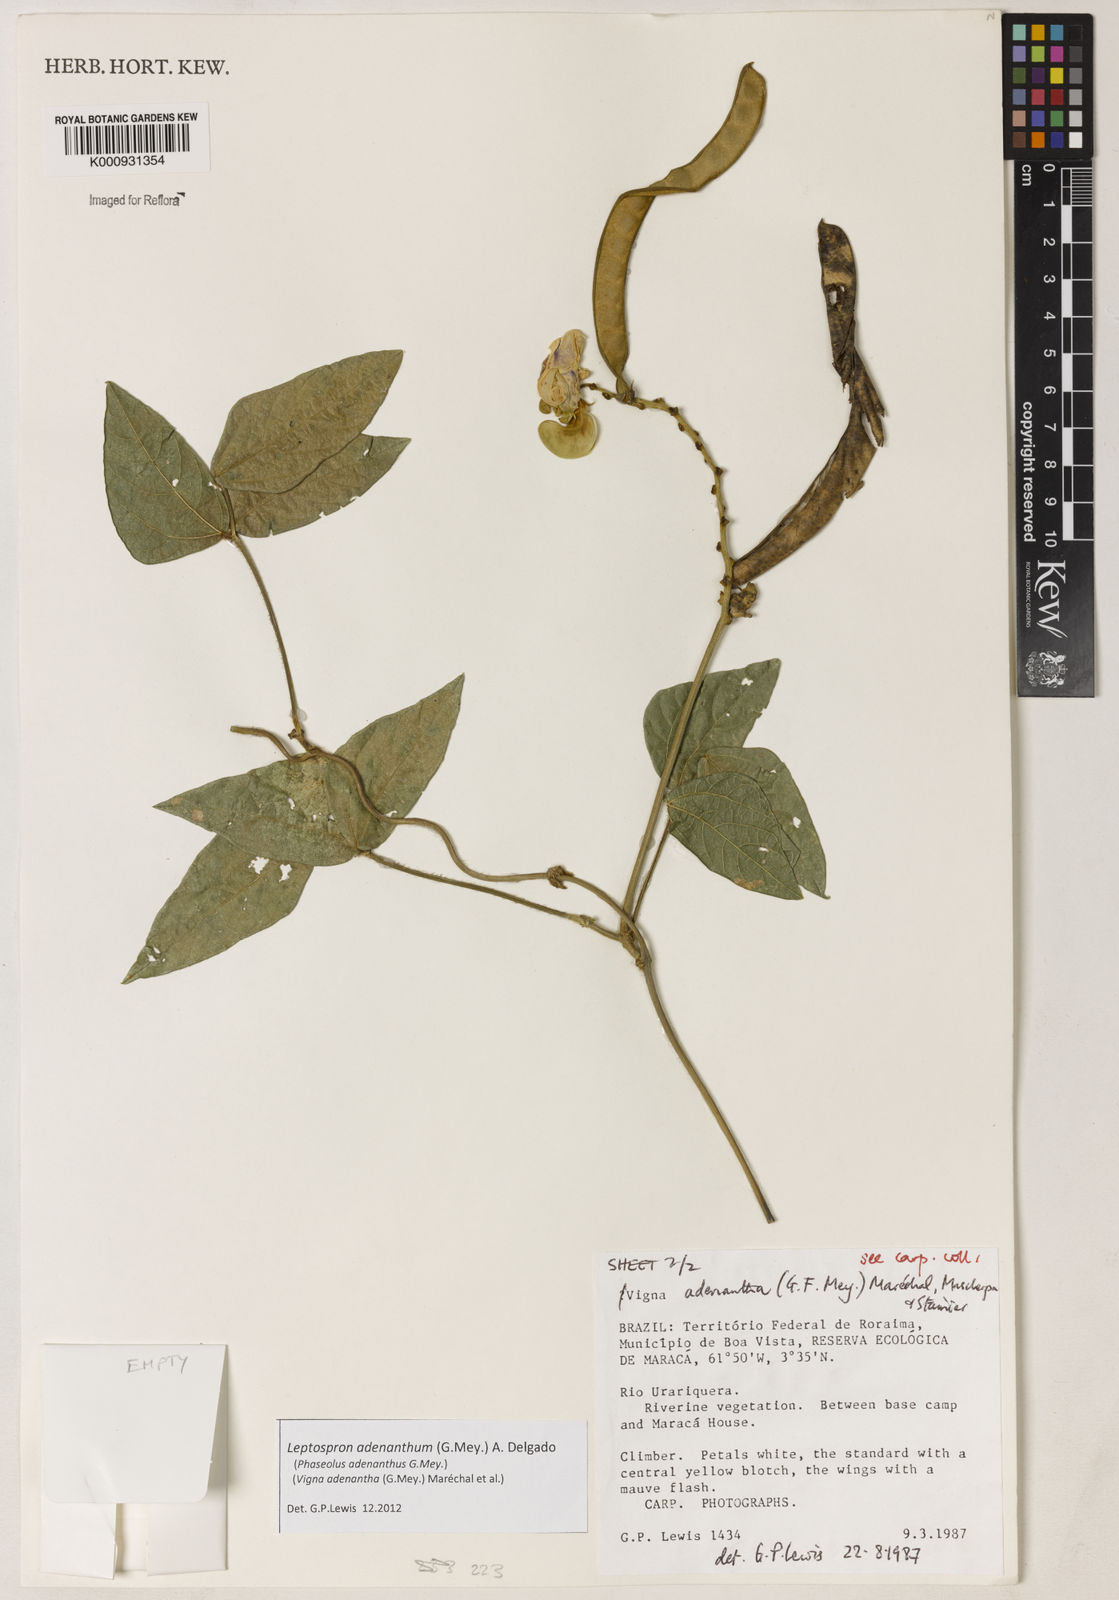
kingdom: Plantae
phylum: Tracheophyta
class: Magnoliopsida
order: Fabales
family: Fabaceae
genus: Leptospron
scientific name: Leptospron adenanthum
